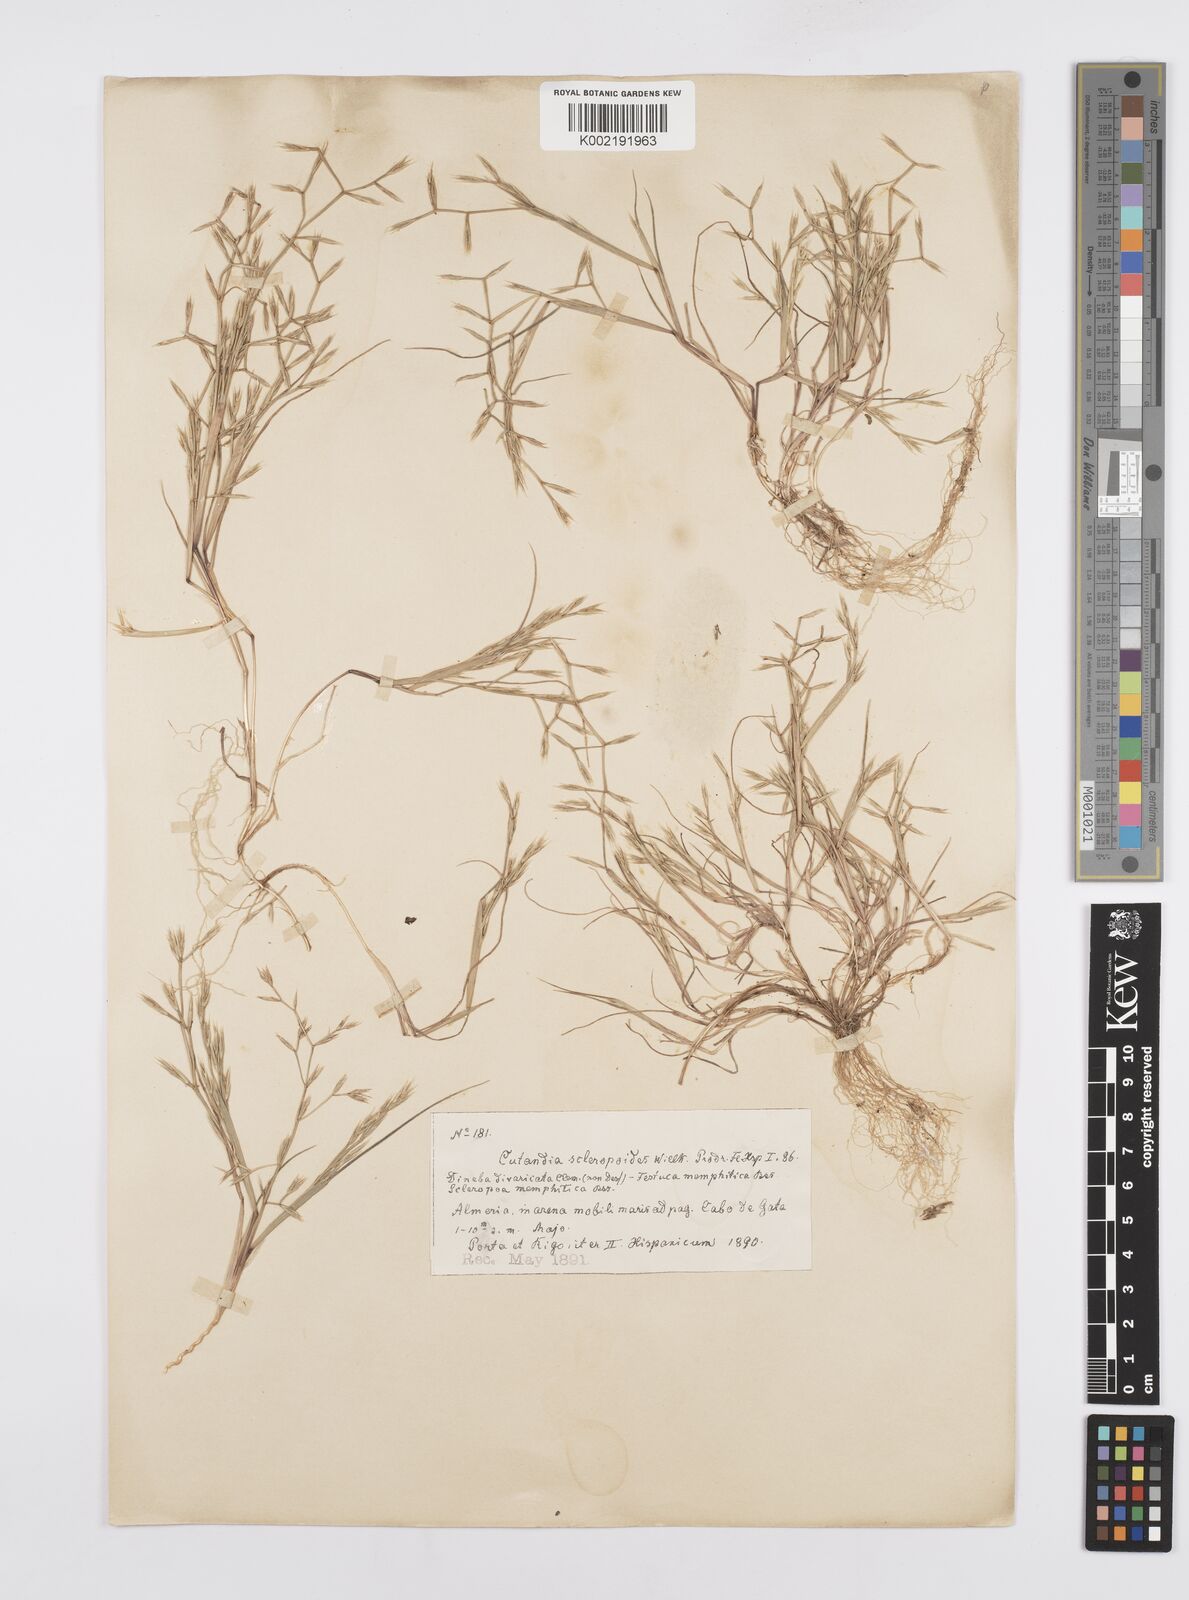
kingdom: Plantae
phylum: Tracheophyta
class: Liliopsida
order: Poales
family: Poaceae
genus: Cutandia
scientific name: Cutandia memphitica
